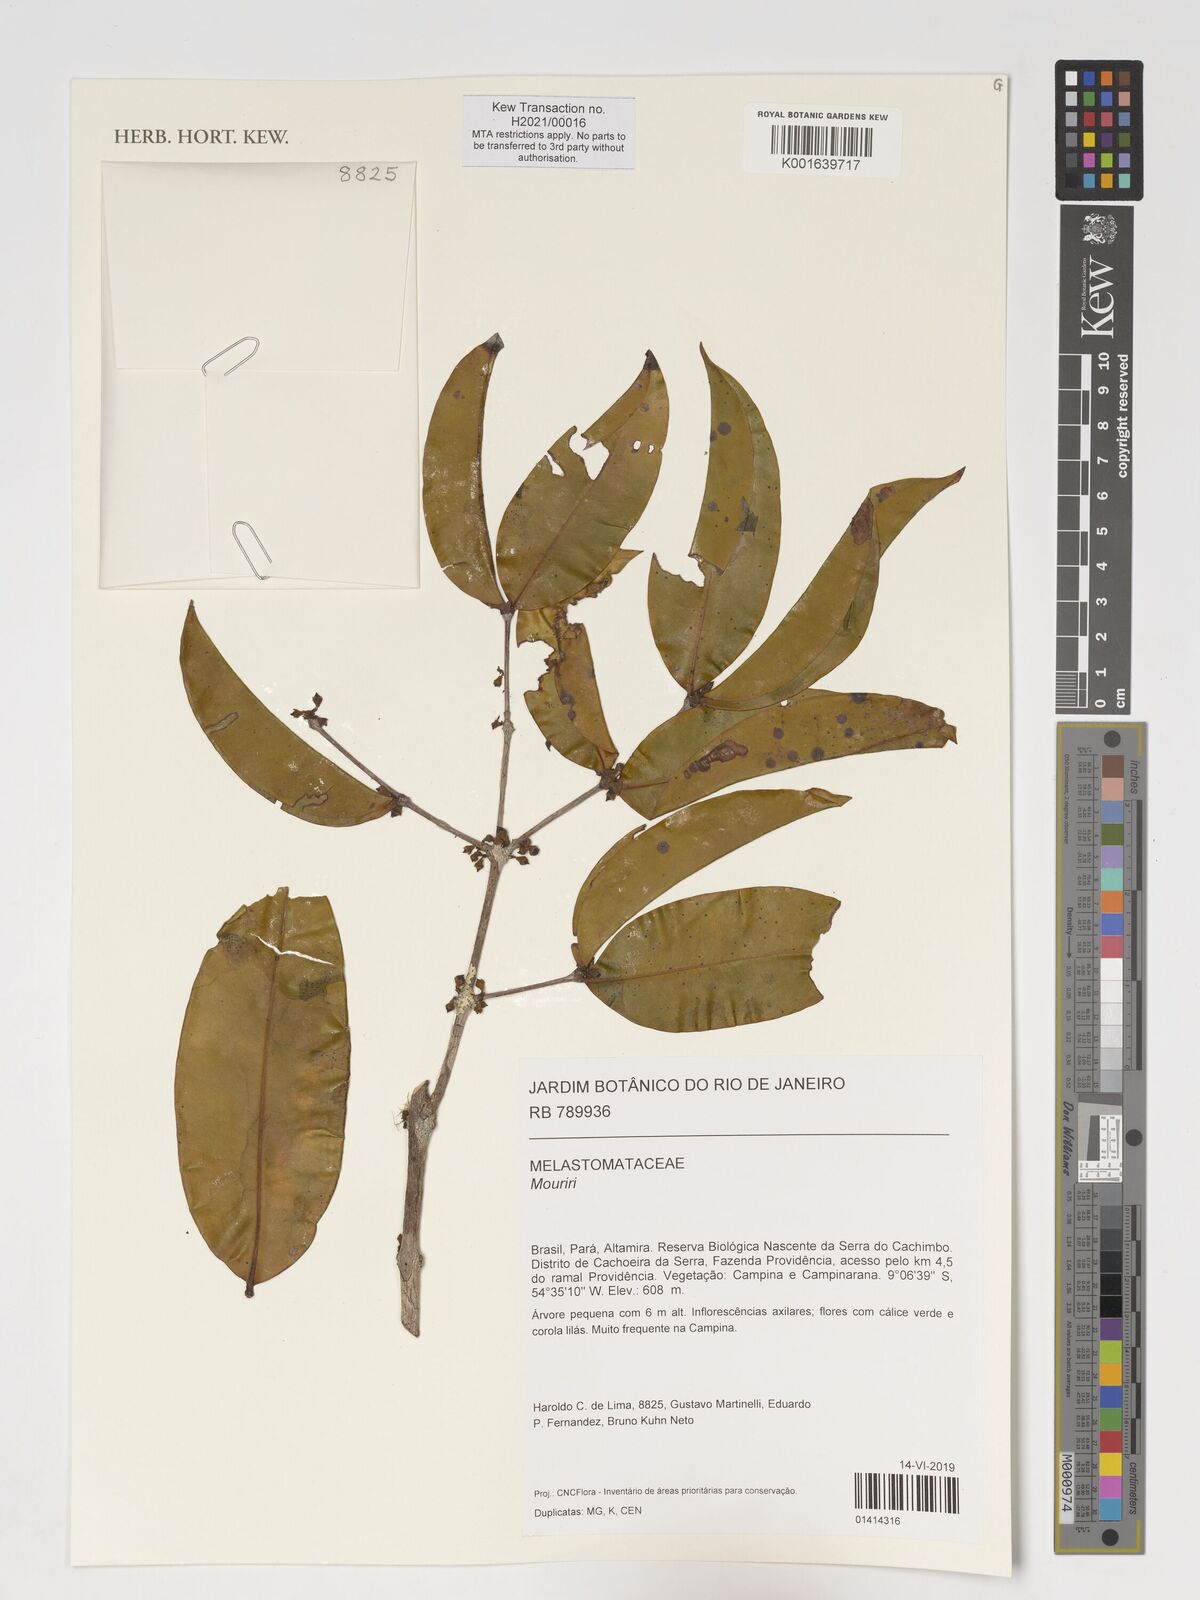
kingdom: Plantae
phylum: Tracheophyta
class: Magnoliopsida
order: Myrtales
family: Melastomataceae
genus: Mouriri
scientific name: Mouriri
